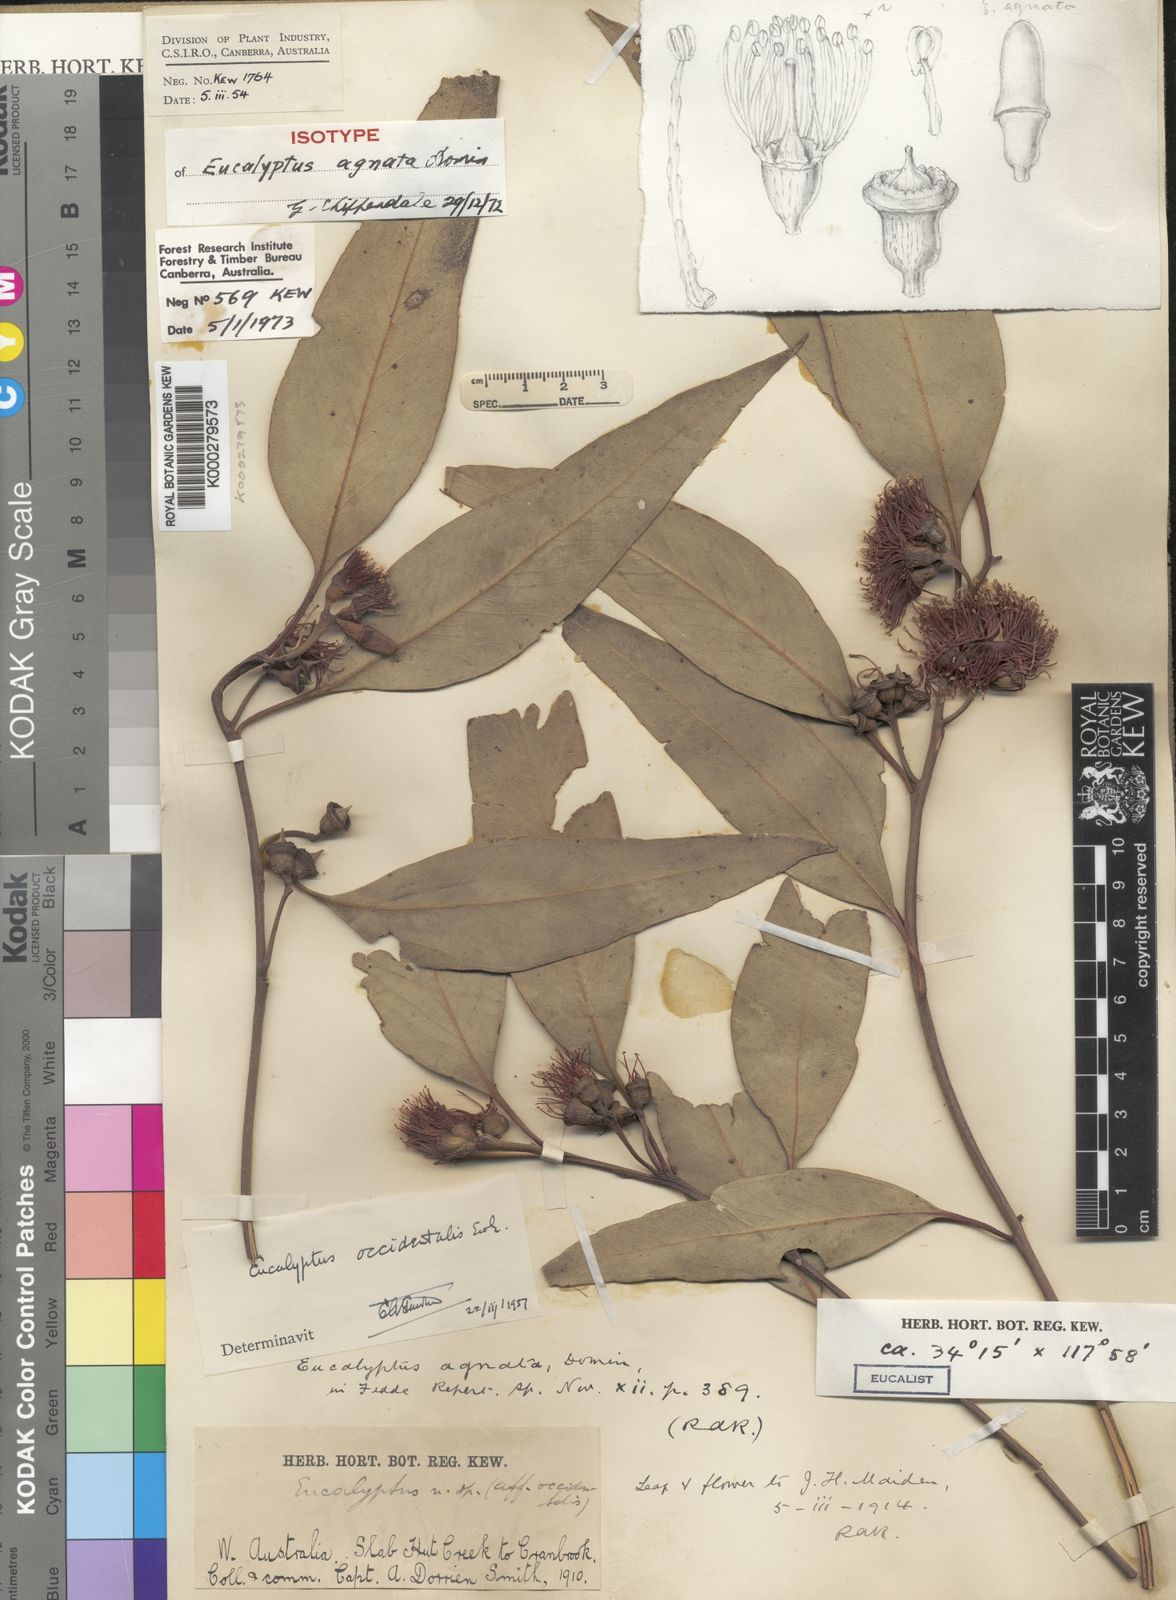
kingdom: Plantae
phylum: Tracheophyta
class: Magnoliopsida
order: Myrtales
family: Myrtaceae
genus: Eucalyptus
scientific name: Eucalyptus occidentalis
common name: Swamp yate
